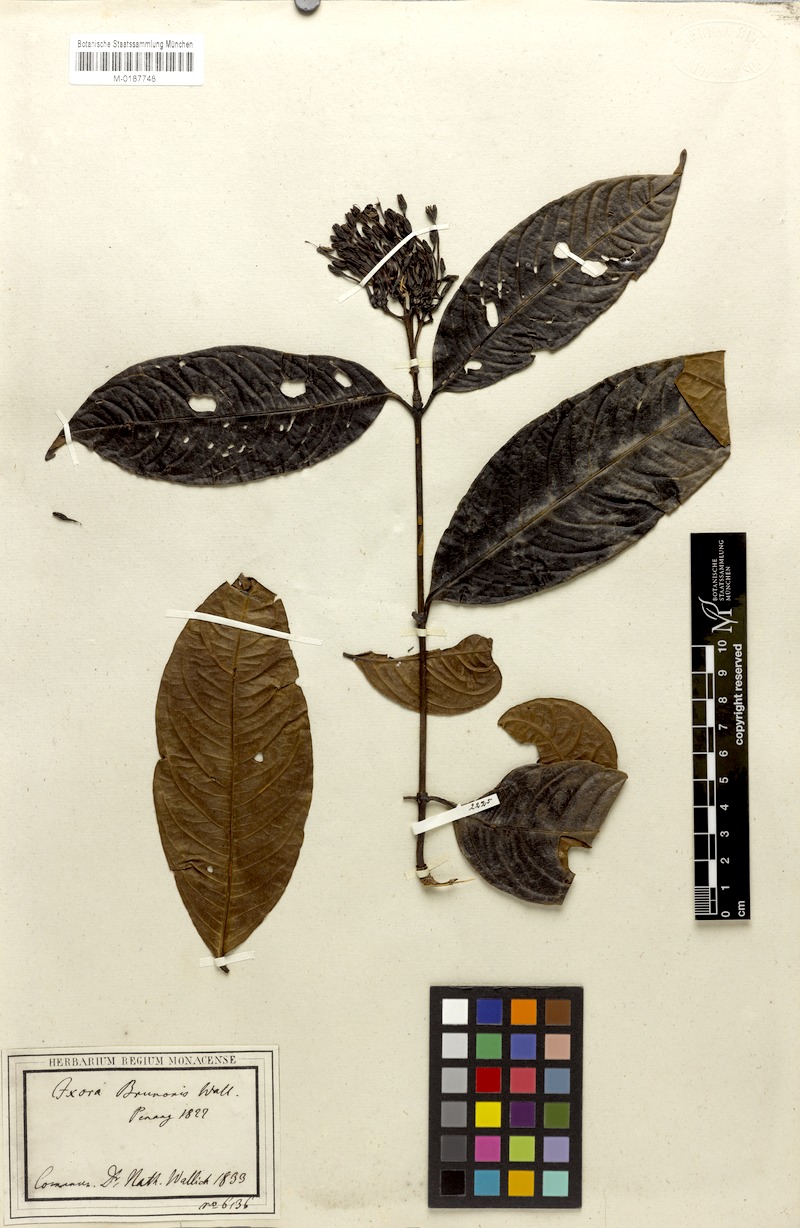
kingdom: Plantae
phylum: Tracheophyta
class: Magnoliopsida
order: Gentianales
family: Rubiaceae
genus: Ixora
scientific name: Ixora brunonis
